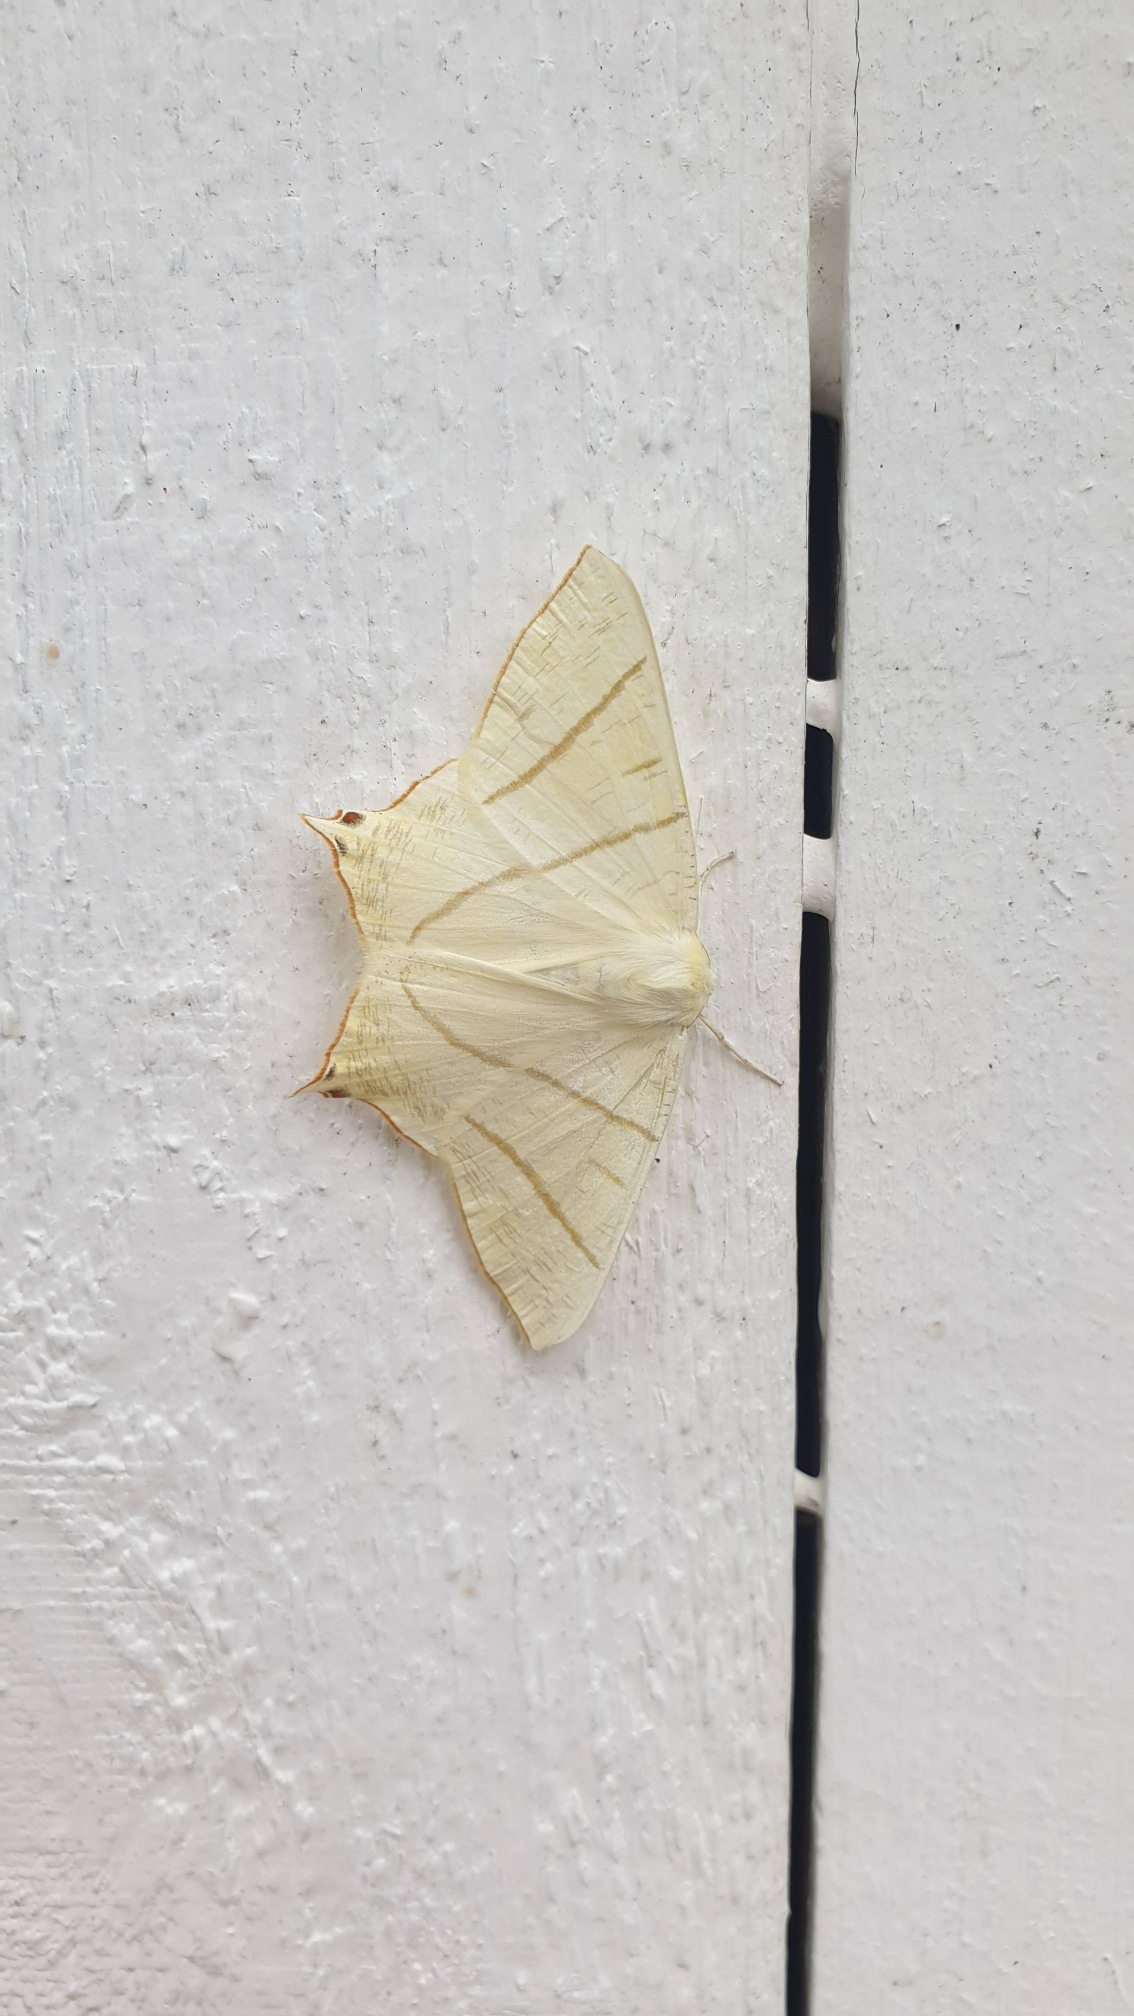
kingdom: Animalia
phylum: Arthropoda
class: Insecta
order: Lepidoptera
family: Geometridae
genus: Ourapteryx
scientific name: Ourapteryx sambucaria
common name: Natsvalehale
